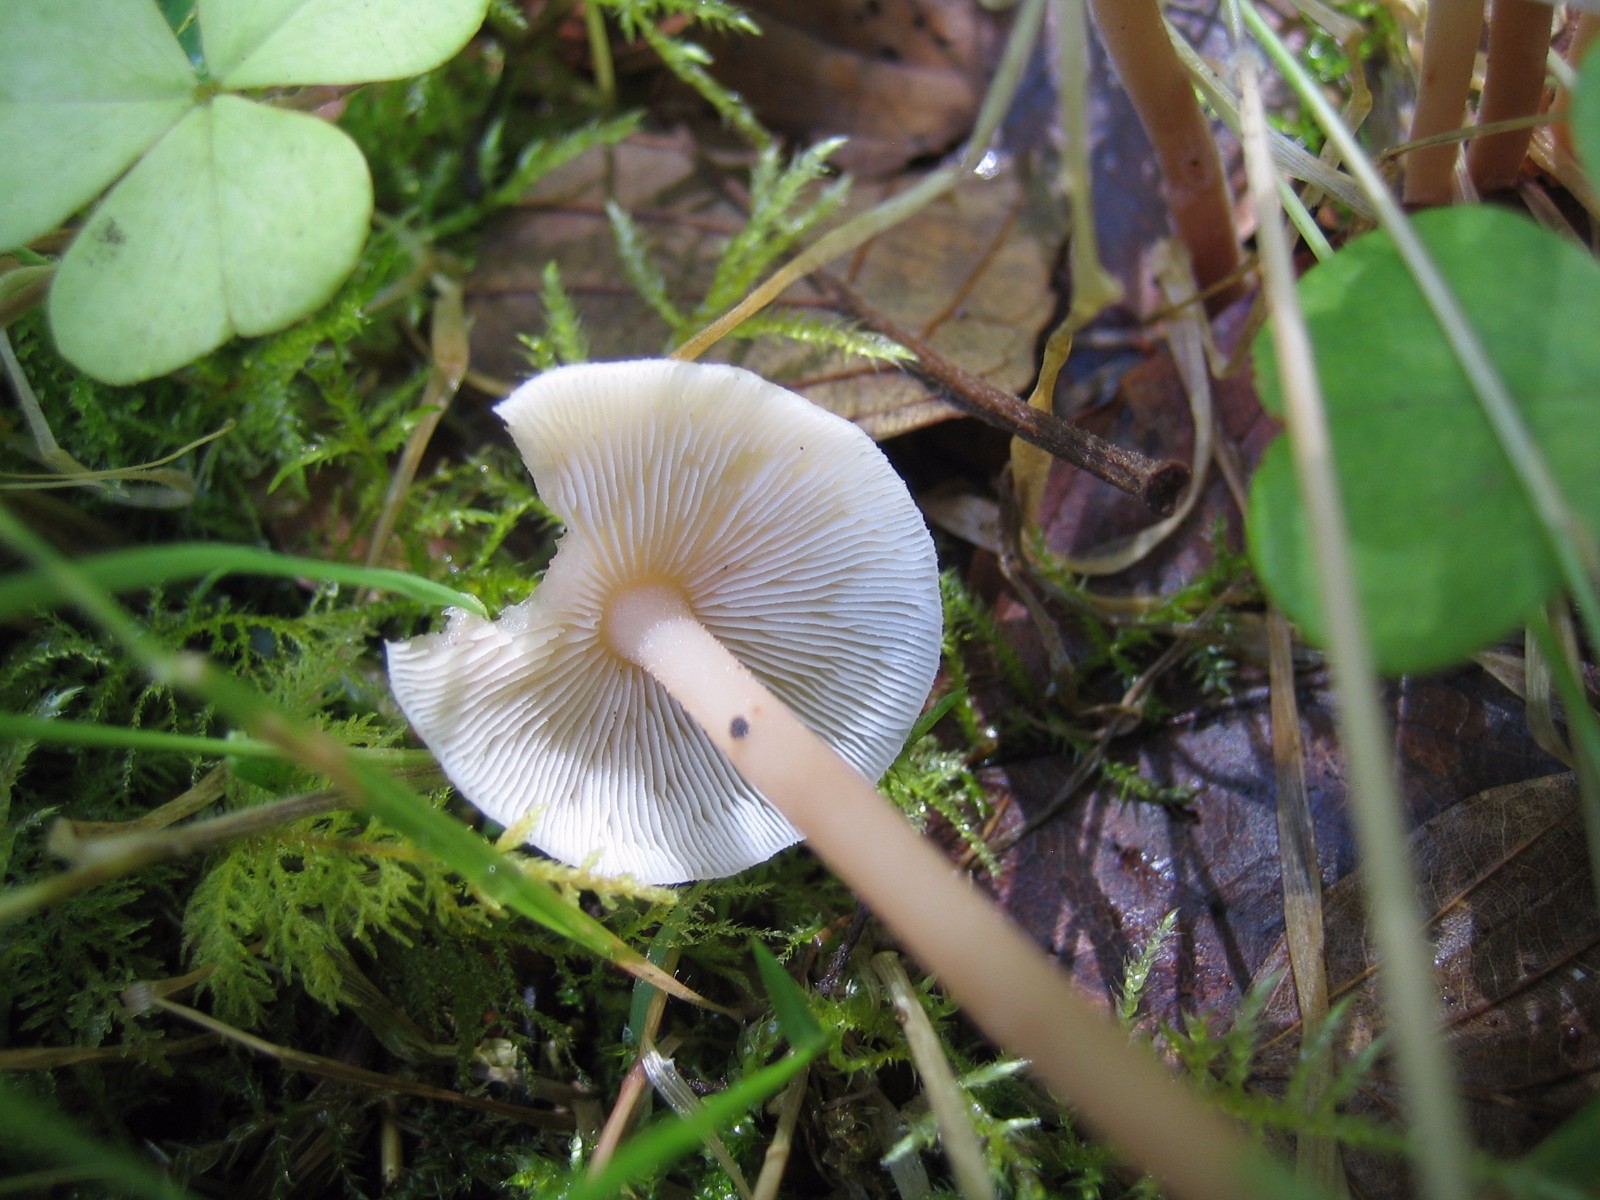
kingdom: Fungi
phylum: Basidiomycota
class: Agaricomycetes
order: Agaricales
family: Omphalotaceae
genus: Collybiopsis
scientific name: Collybiopsis confluens
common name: knippe-fladhat
